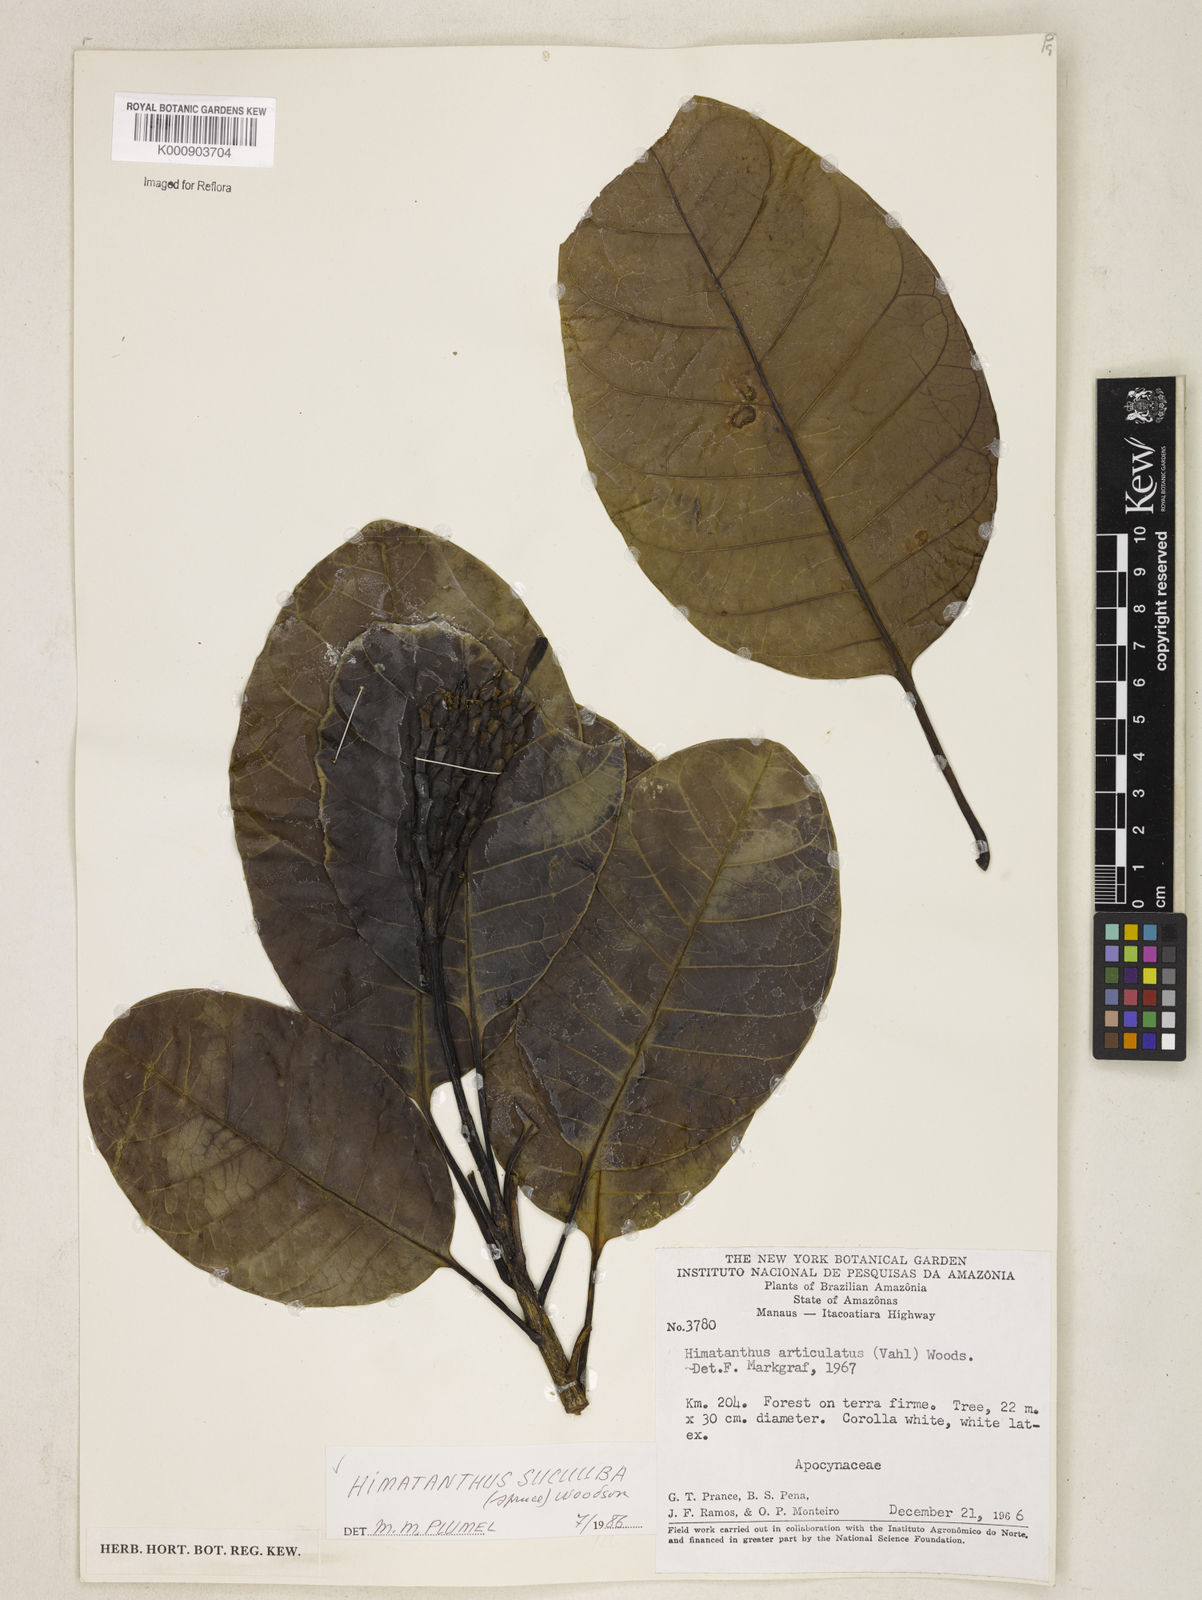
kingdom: Plantae
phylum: Tracheophyta
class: Magnoliopsida
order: Gentianales
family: Apocynaceae
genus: Himatanthus
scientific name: Himatanthus articulatus
